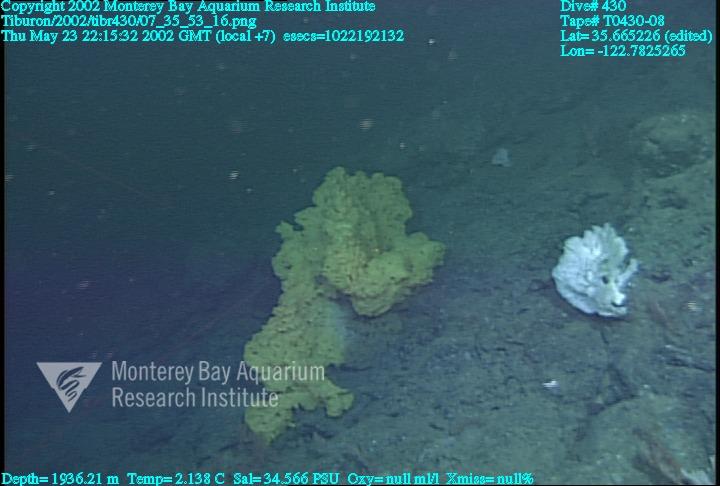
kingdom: Animalia
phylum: Porifera
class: Hexactinellida
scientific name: Hexactinellida
